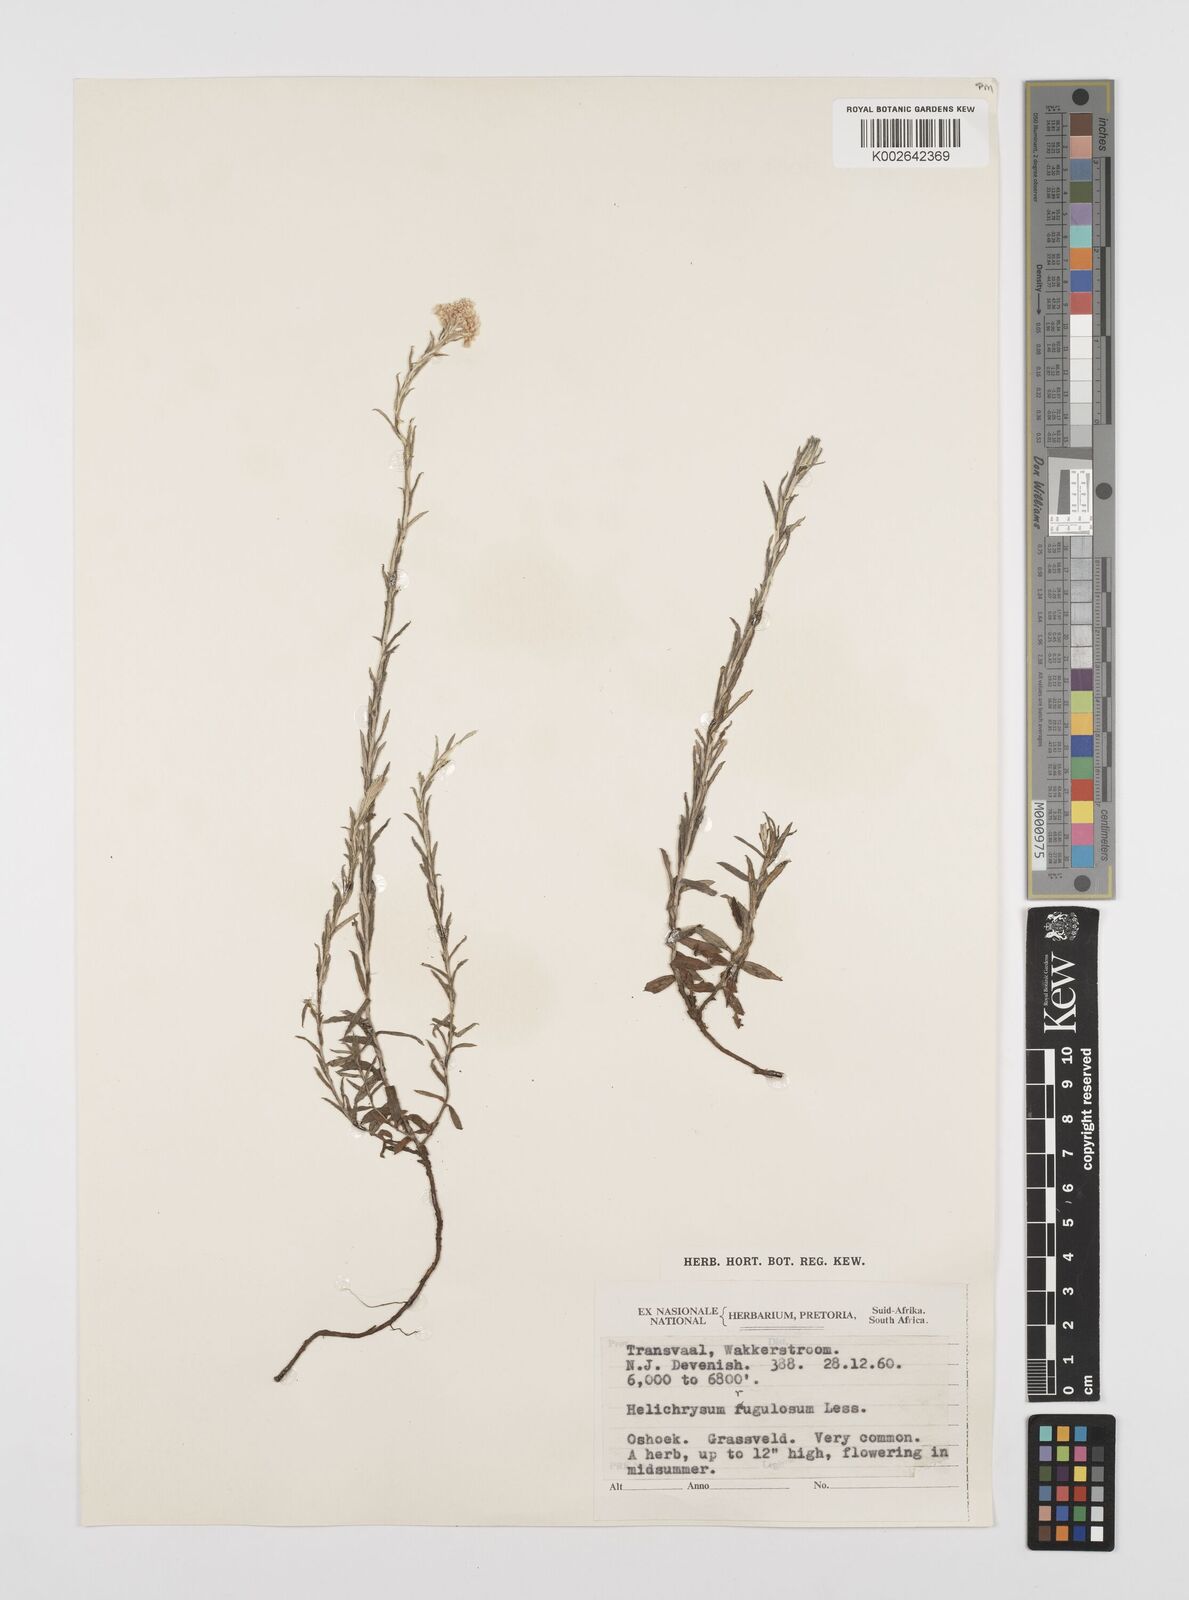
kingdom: Plantae
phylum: Tracheophyta
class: Magnoliopsida
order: Asterales
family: Asteraceae
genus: Helichrysum
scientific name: Helichrysum rugulosum
